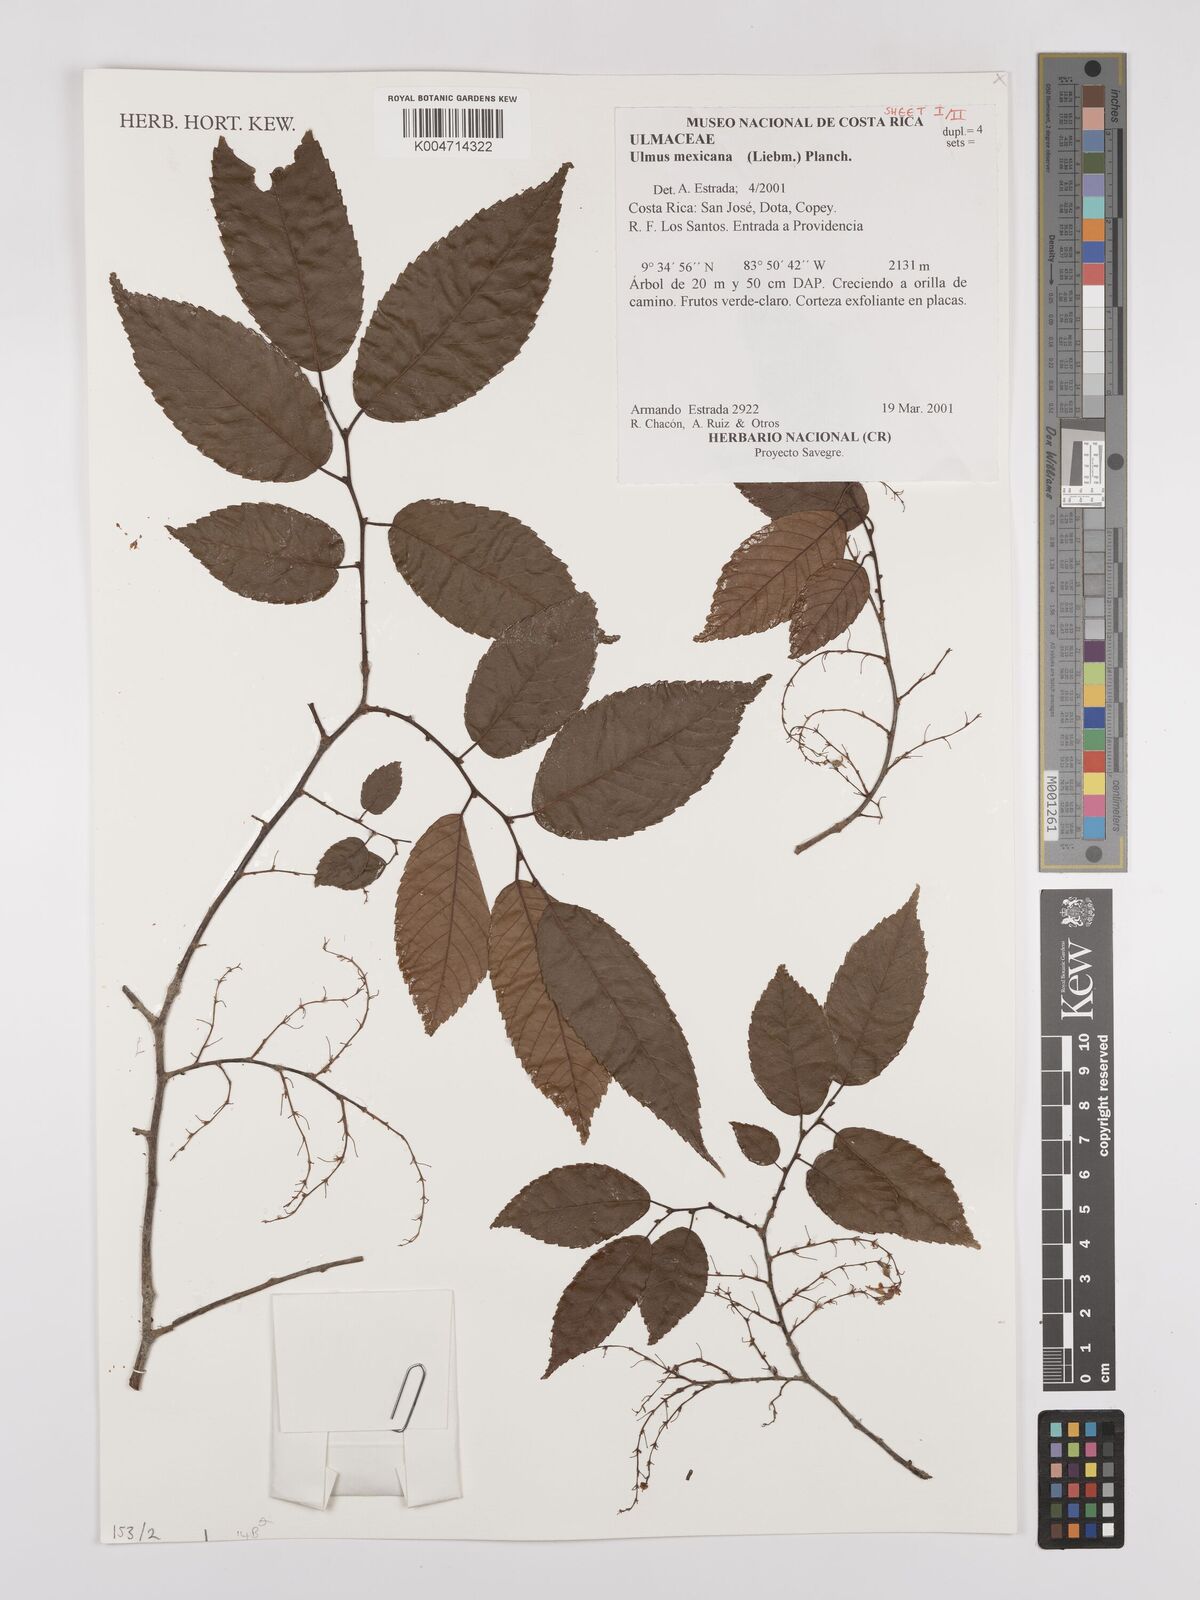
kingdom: Plantae
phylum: Tracheophyta
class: Magnoliopsida
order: Rosales
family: Ulmaceae
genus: Ulmus
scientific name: Ulmus mexicana
